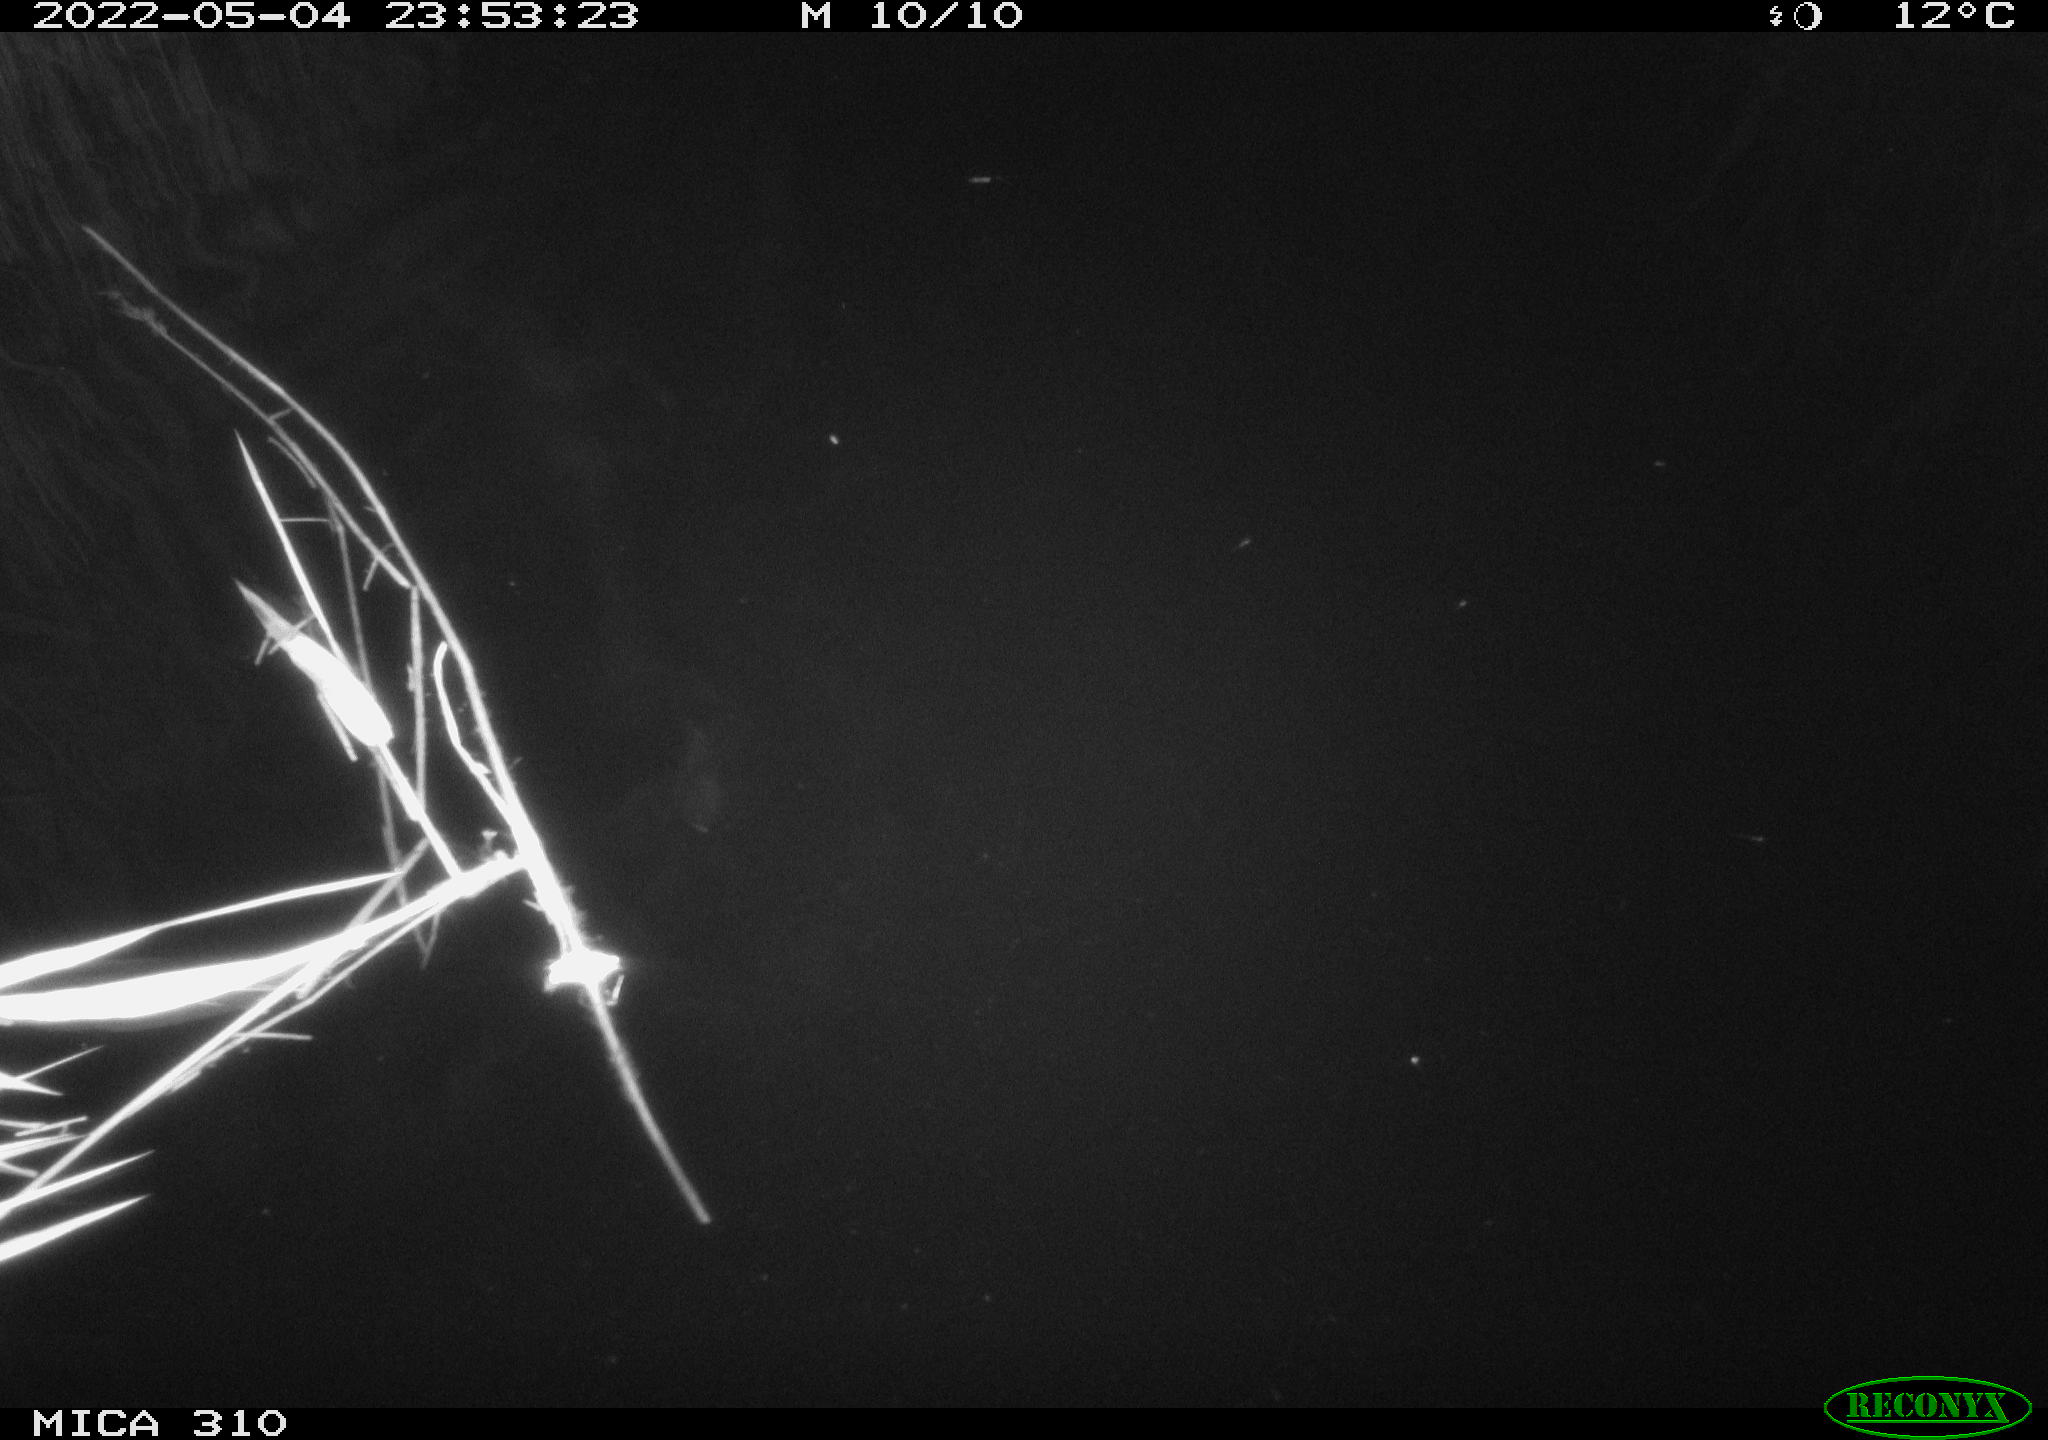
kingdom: Animalia
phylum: Chordata
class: Aves
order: Anseriformes
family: Anatidae
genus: Anas
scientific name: Anas platyrhynchos
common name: Mallard
